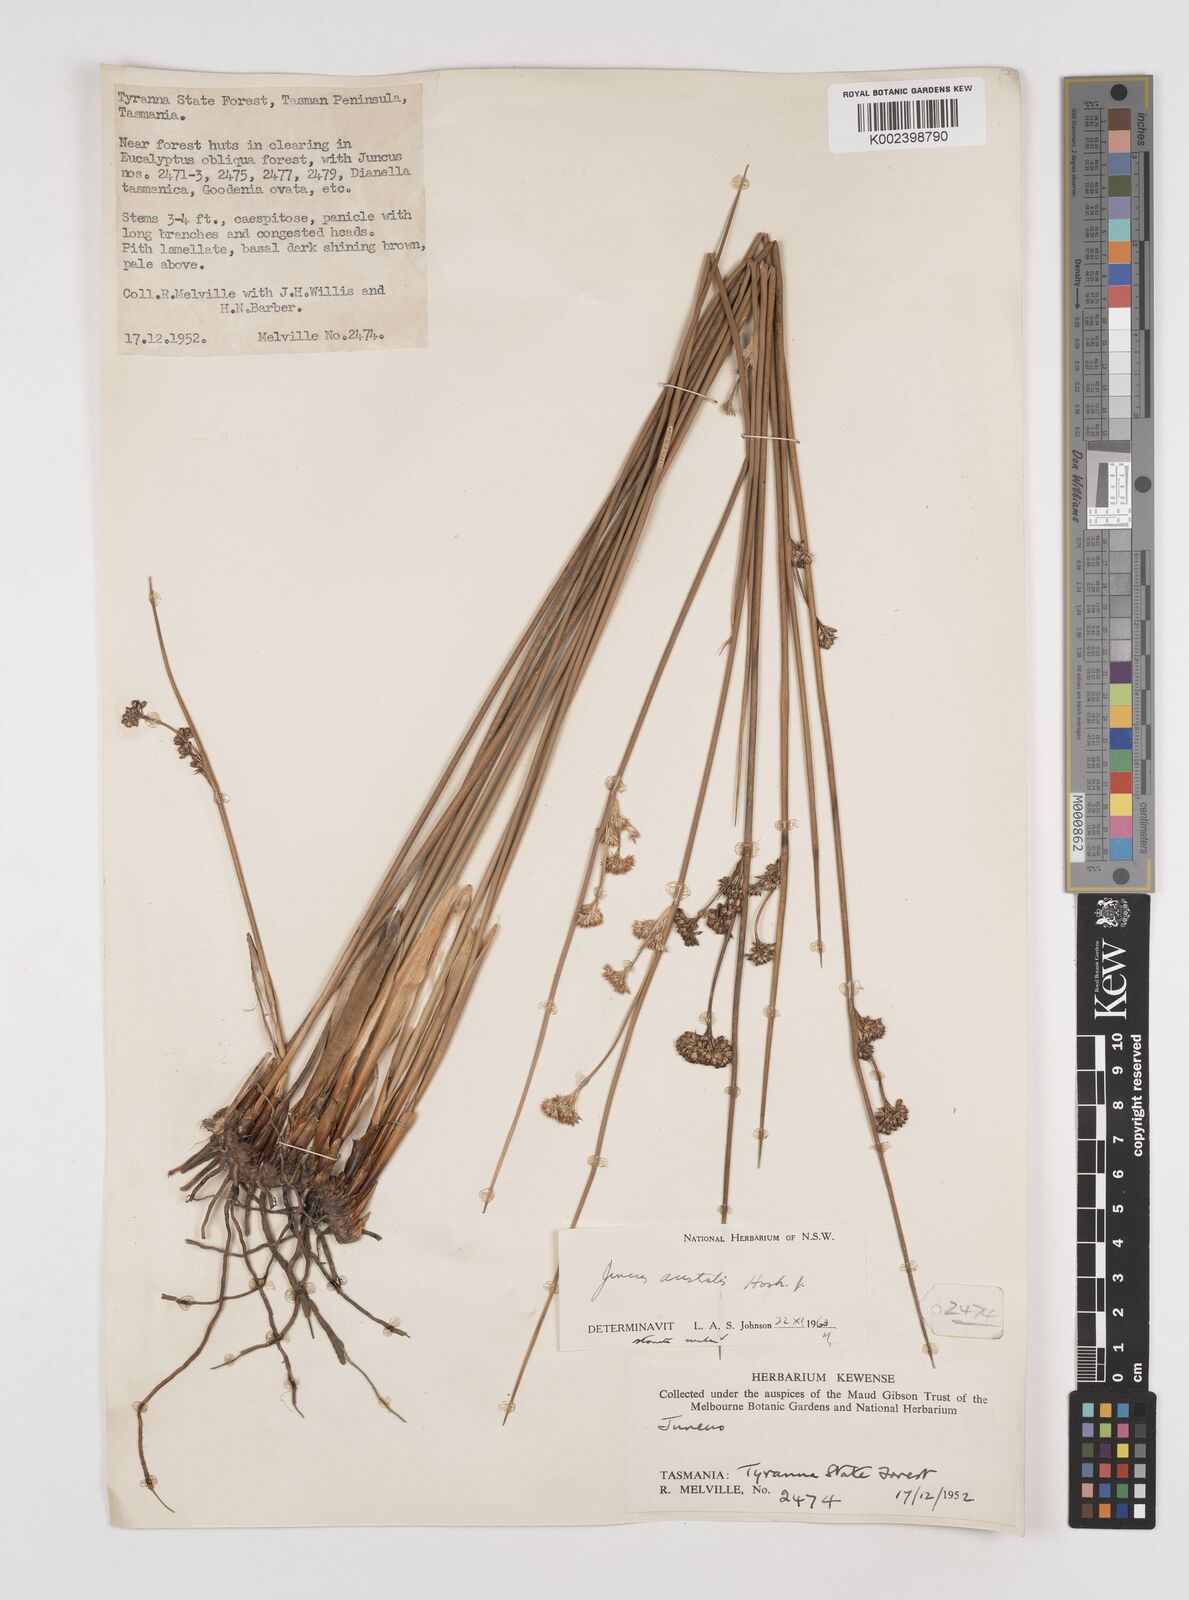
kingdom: Plantae
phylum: Tracheophyta
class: Liliopsida
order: Poales
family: Juncaceae
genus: Juncus
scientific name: Juncus australis
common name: Austral rush
